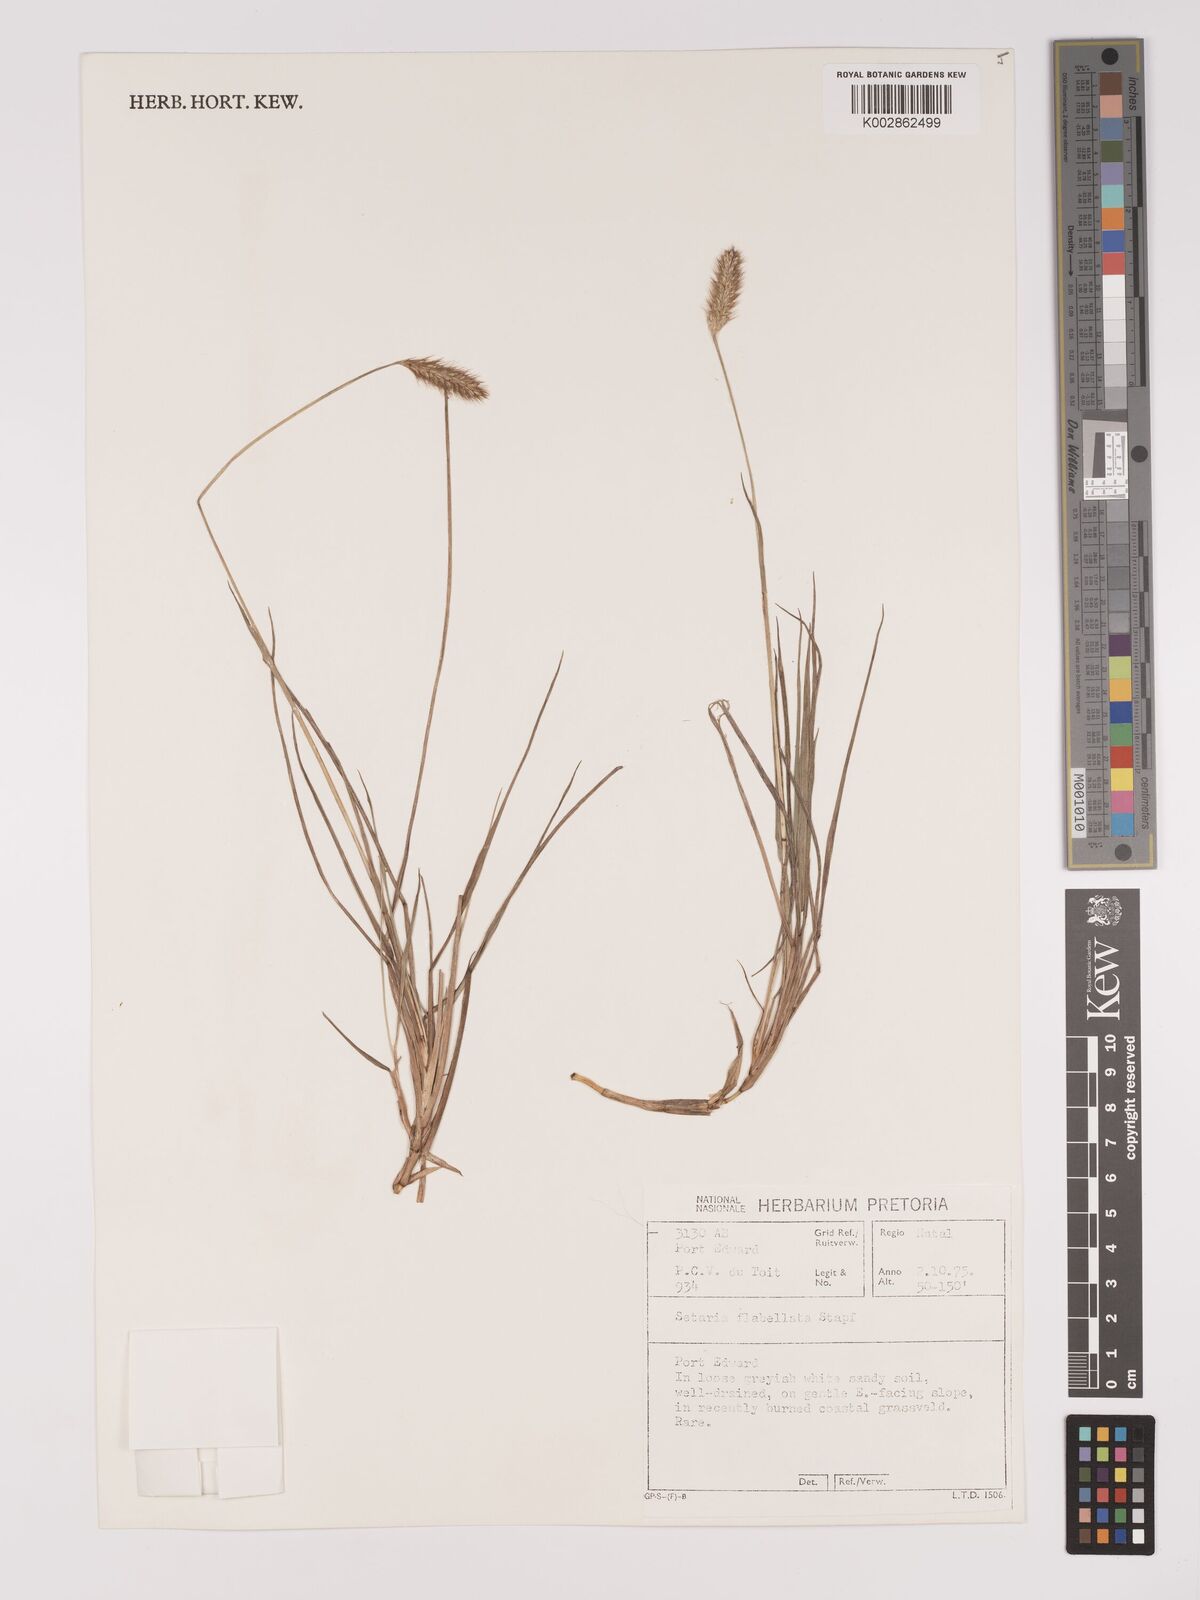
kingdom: Plantae
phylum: Tracheophyta
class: Liliopsida
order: Poales
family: Poaceae
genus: Setaria
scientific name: Setaria sphacelata
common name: African bristlegrass
